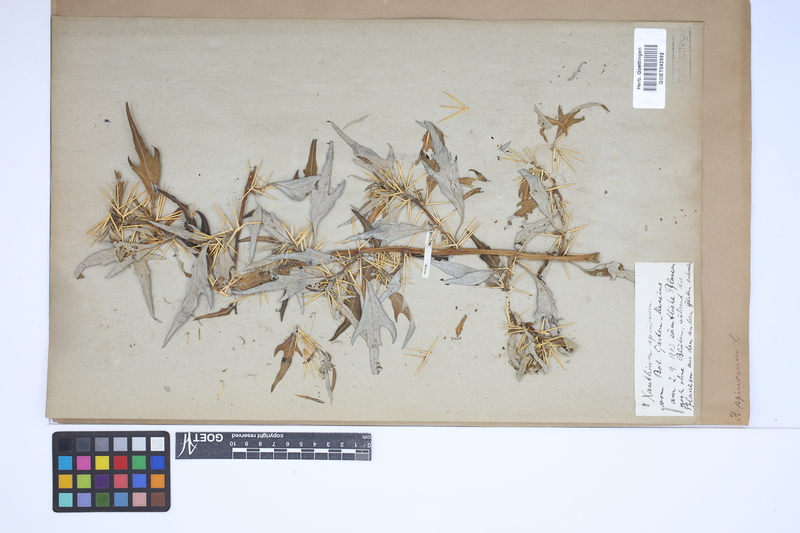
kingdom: Plantae
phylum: Tracheophyta
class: Magnoliopsida
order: Asterales
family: Asteraceae
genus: Xanthium
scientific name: Xanthium spinosum
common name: Spiny cocklebur
